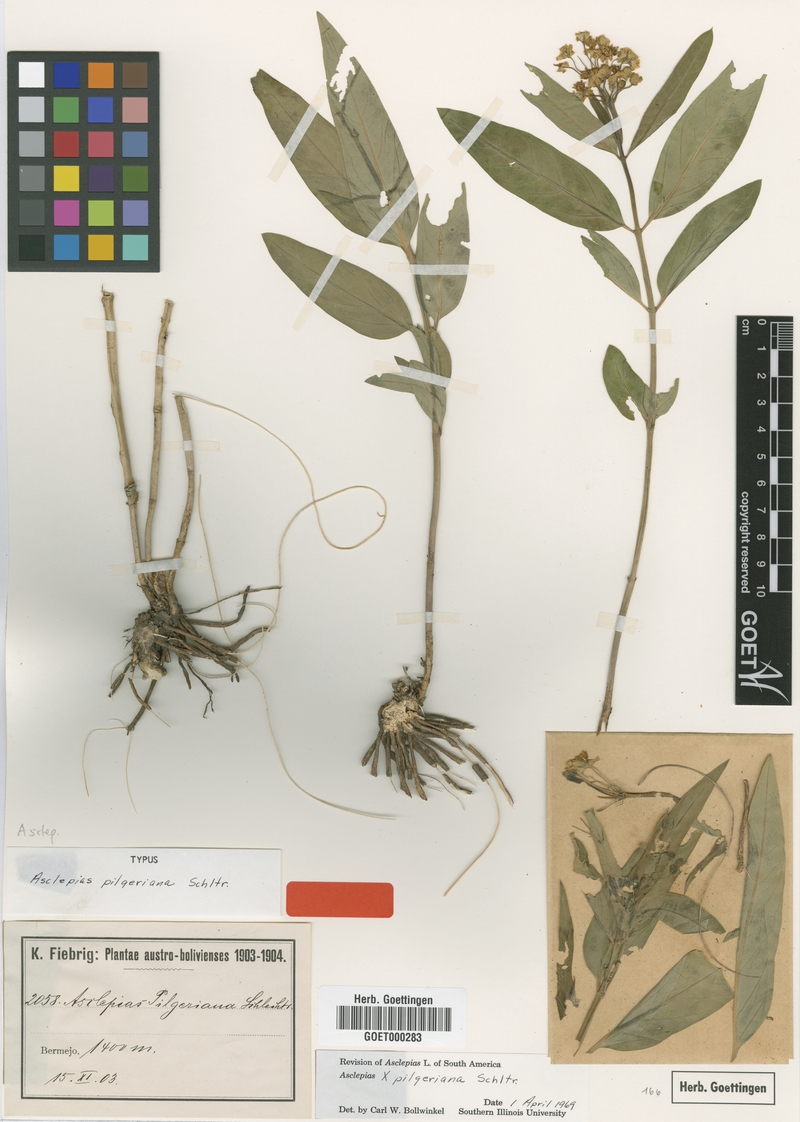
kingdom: Plantae
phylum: Tracheophyta
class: Magnoliopsida
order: Gentianales
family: Apocynaceae
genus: Asclepias
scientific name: Asclepias pilgeriana
